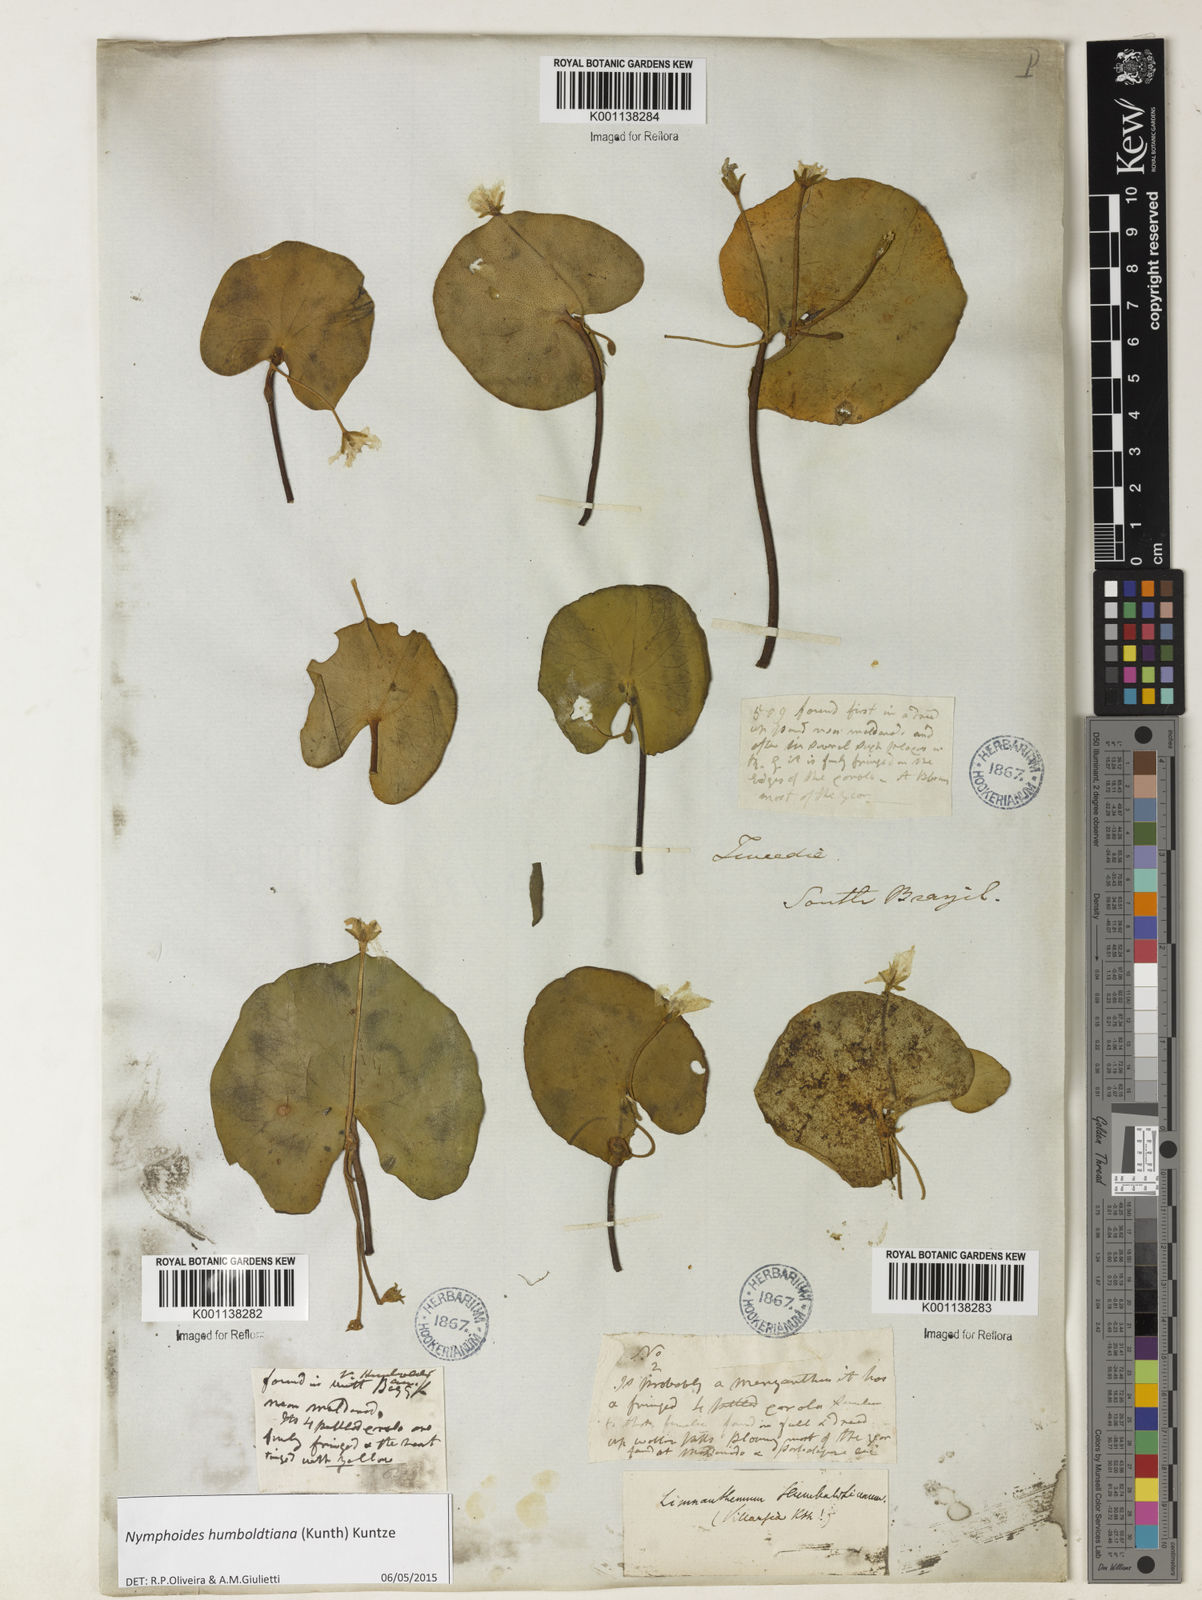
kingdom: Plantae
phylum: Tracheophyta
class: Magnoliopsida
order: Asterales
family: Menyanthaceae
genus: Nymphoides
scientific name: Nymphoides humboldtiana
